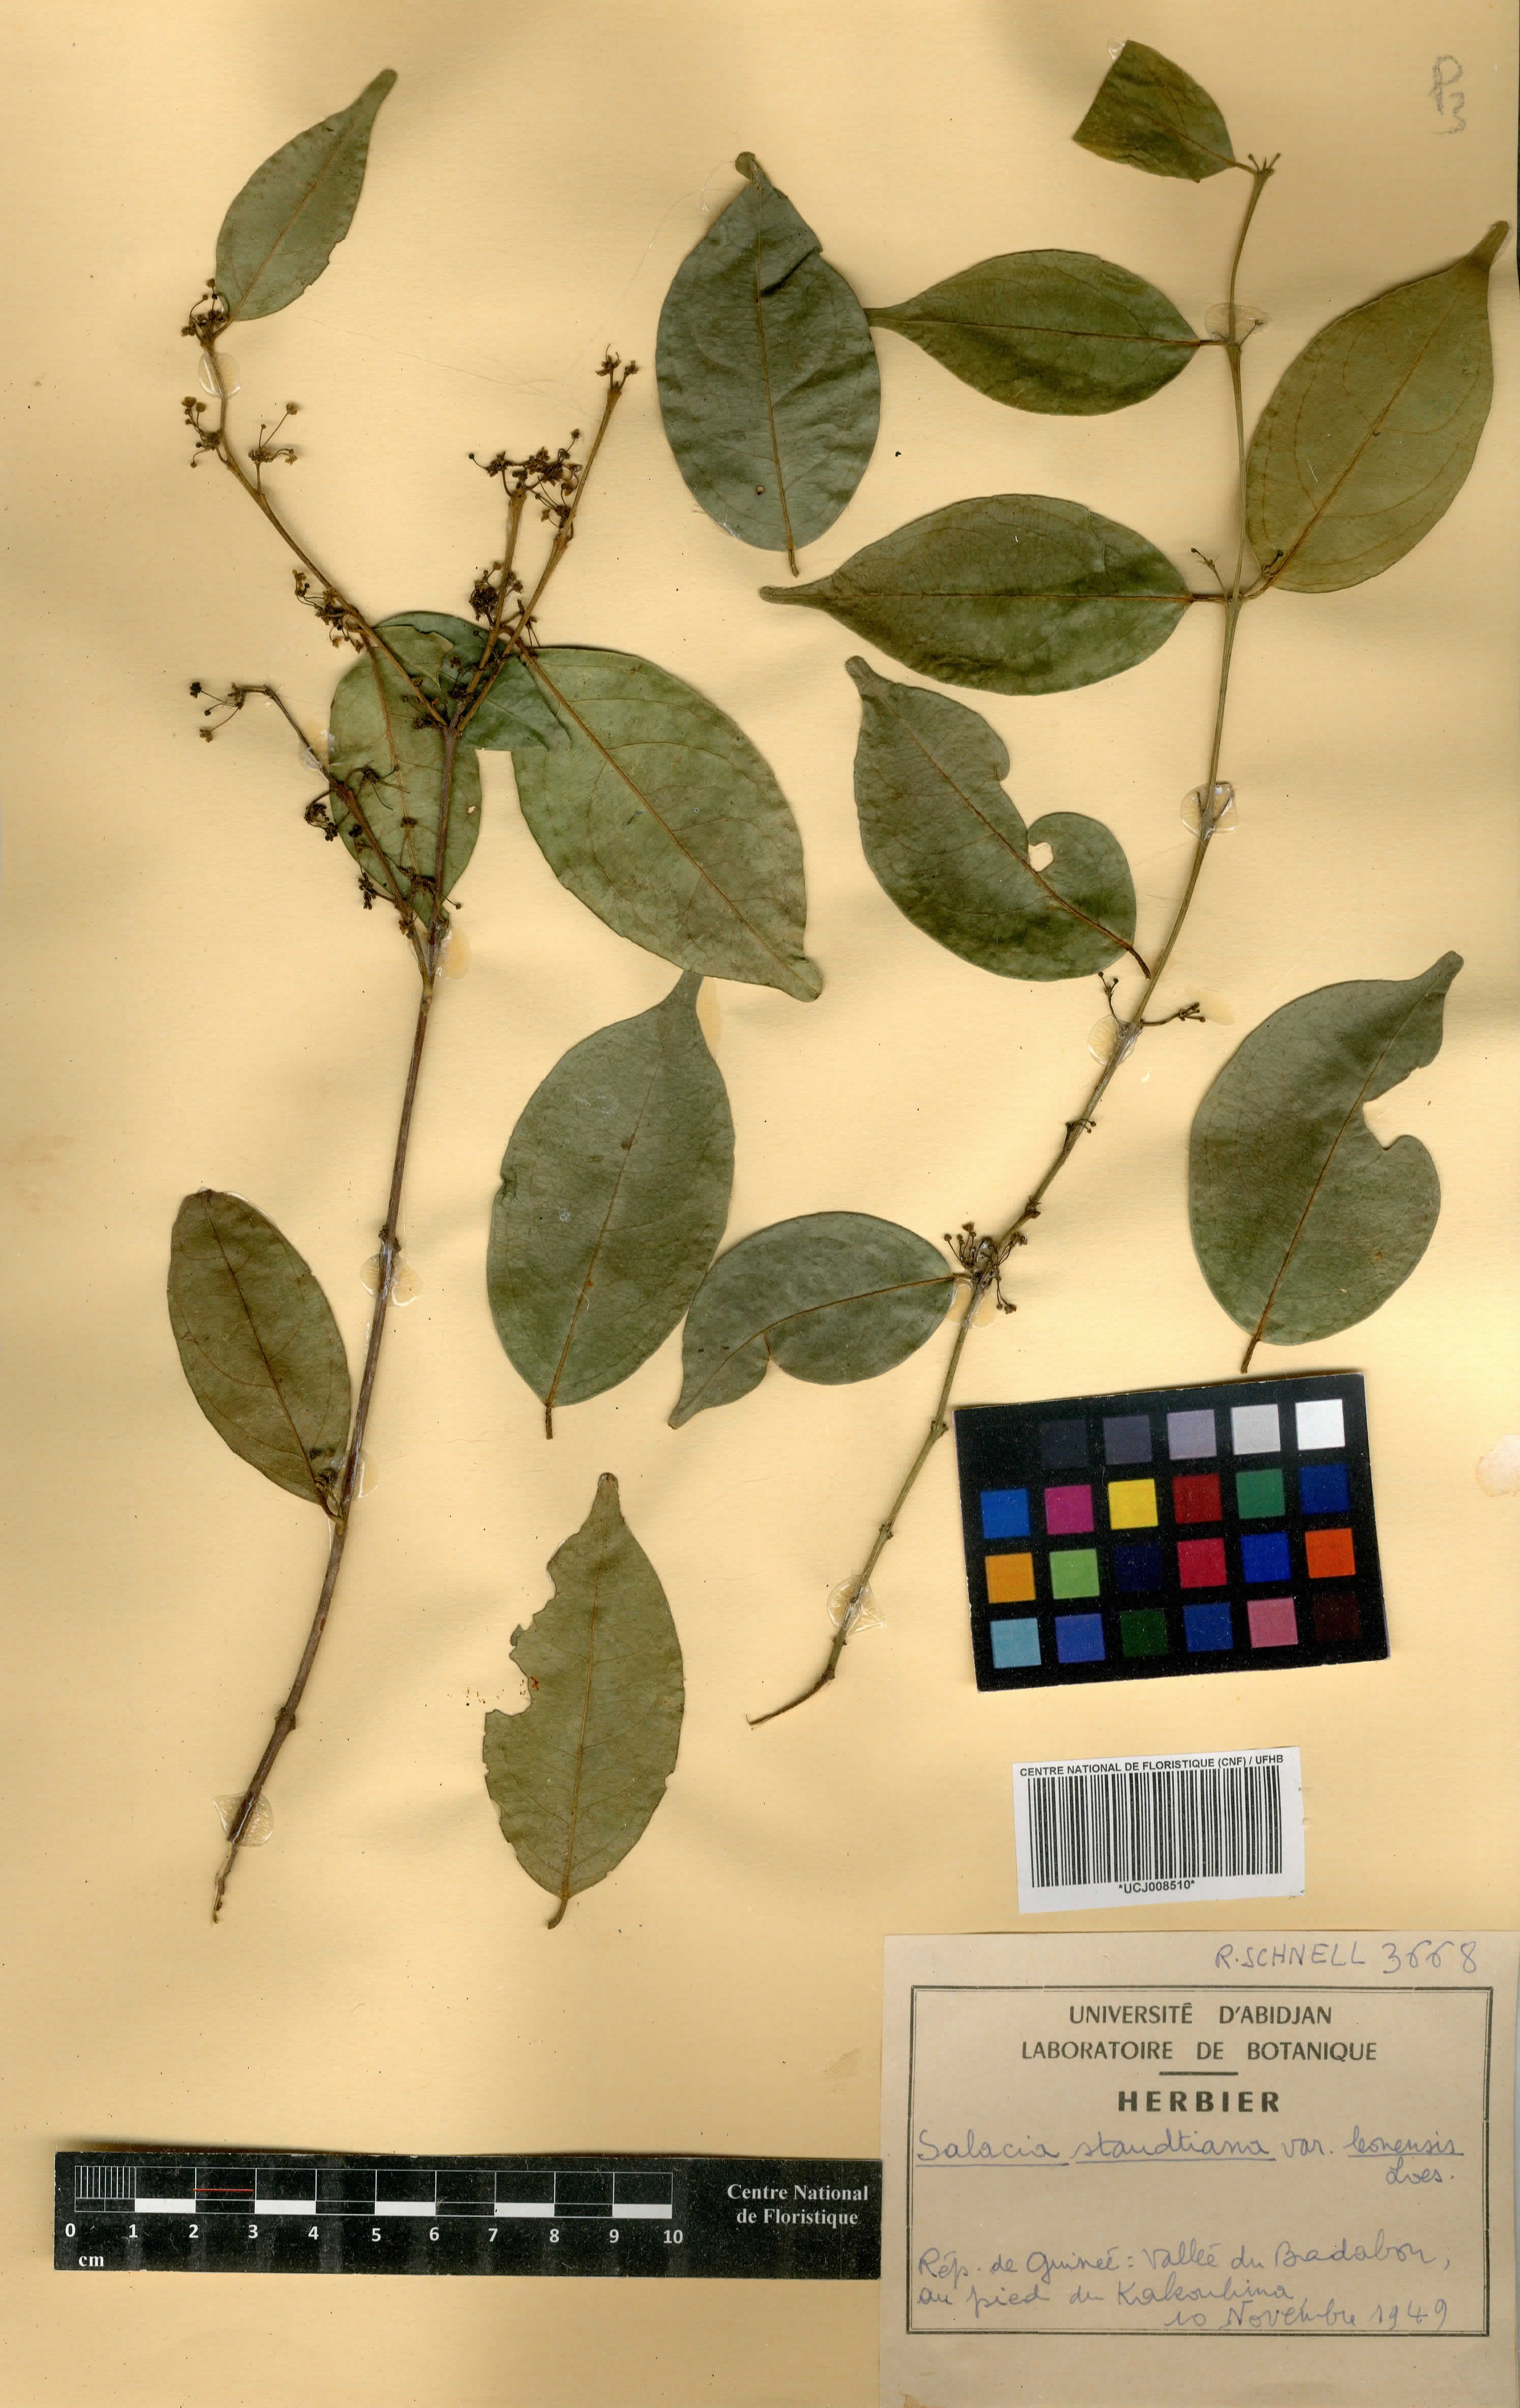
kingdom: Plantae
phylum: Tracheophyta
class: Magnoliopsida
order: Celastrales
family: Celastraceae
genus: Salacia
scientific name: Salacia caillei
